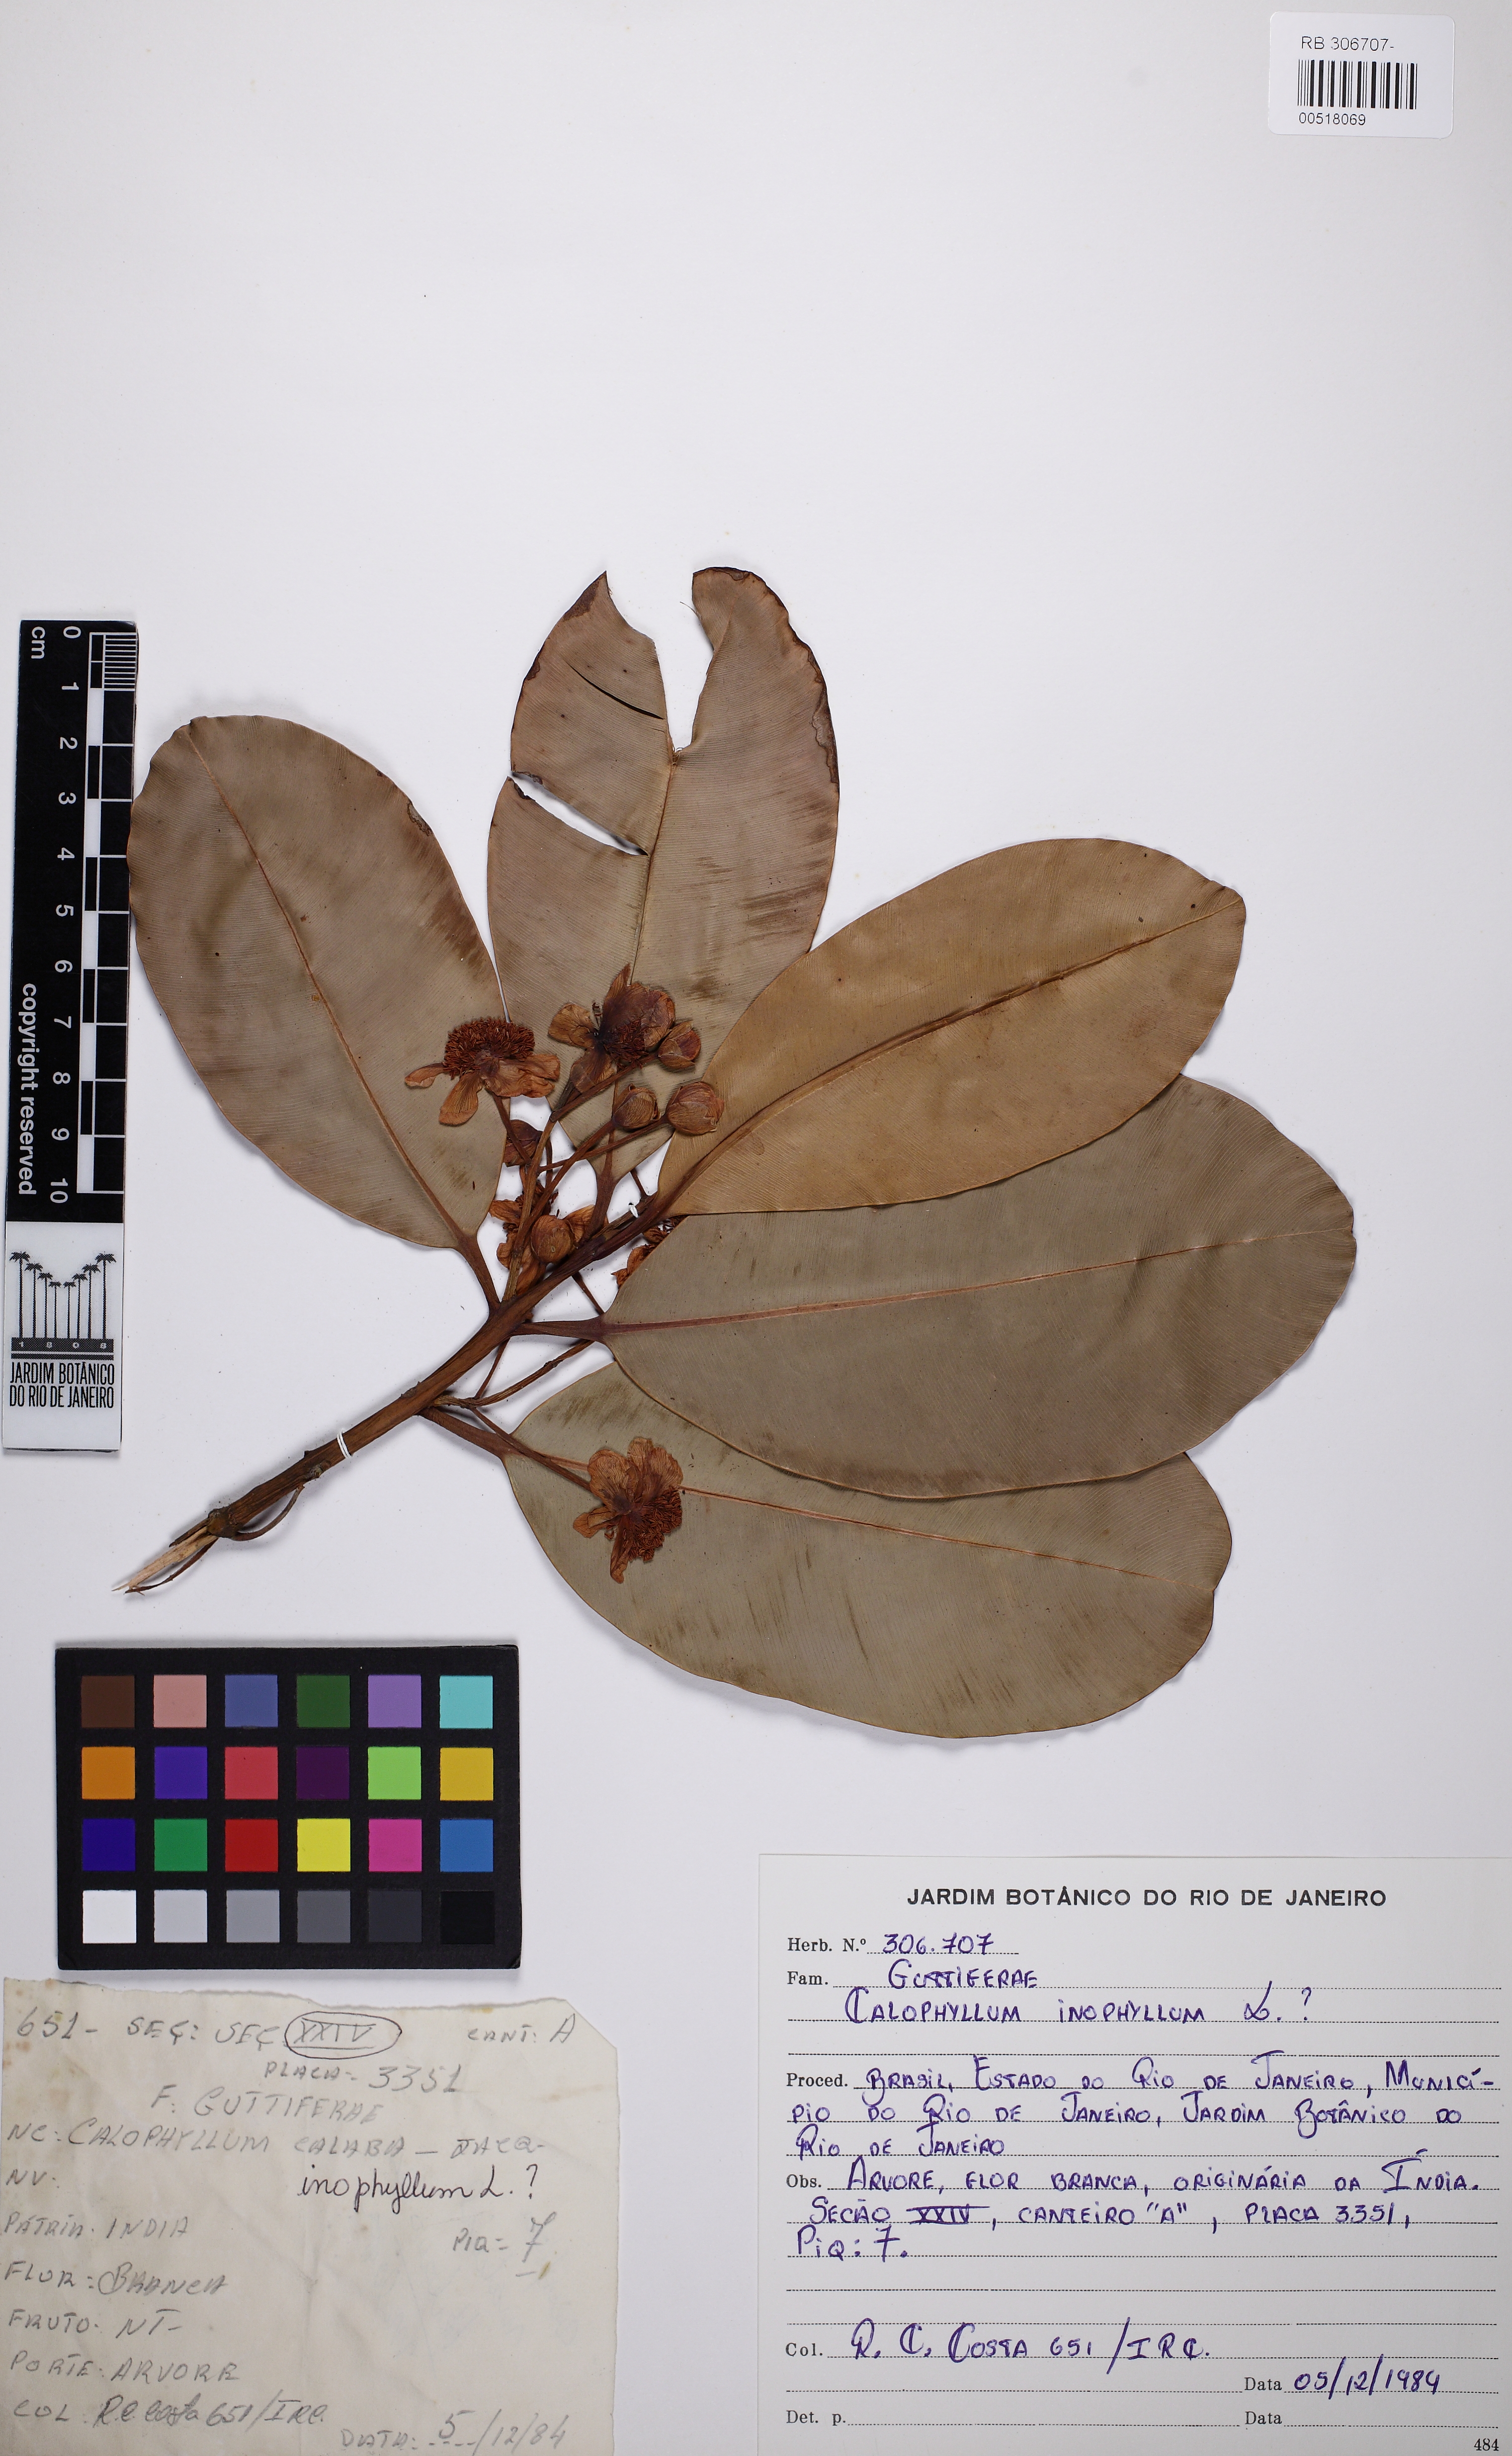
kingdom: Plantae
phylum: Tracheophyta
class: Magnoliopsida
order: Malpighiales
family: Calophyllaceae
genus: Calophyllum
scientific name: Calophyllum inophyllum
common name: Alexandrian laurel
